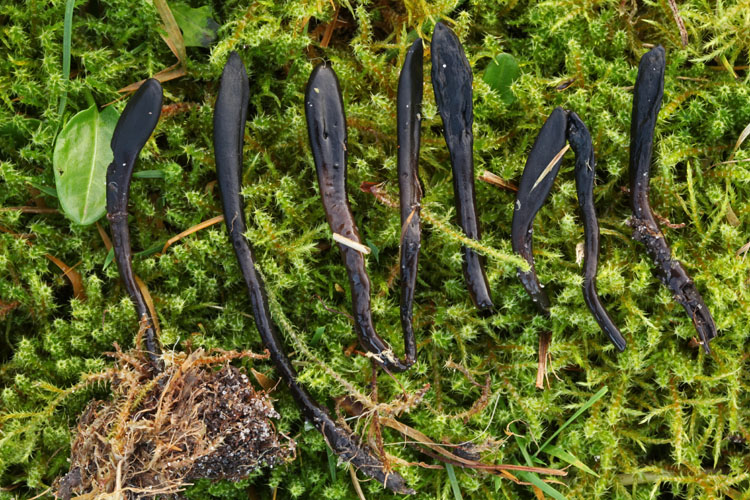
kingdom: Fungi
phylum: Ascomycota
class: Geoglossomycetes
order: Geoglossales
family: Geoglossaceae
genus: Glutinoglossum
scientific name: Glutinoglossum glutinosum
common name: slimet jordtunge
